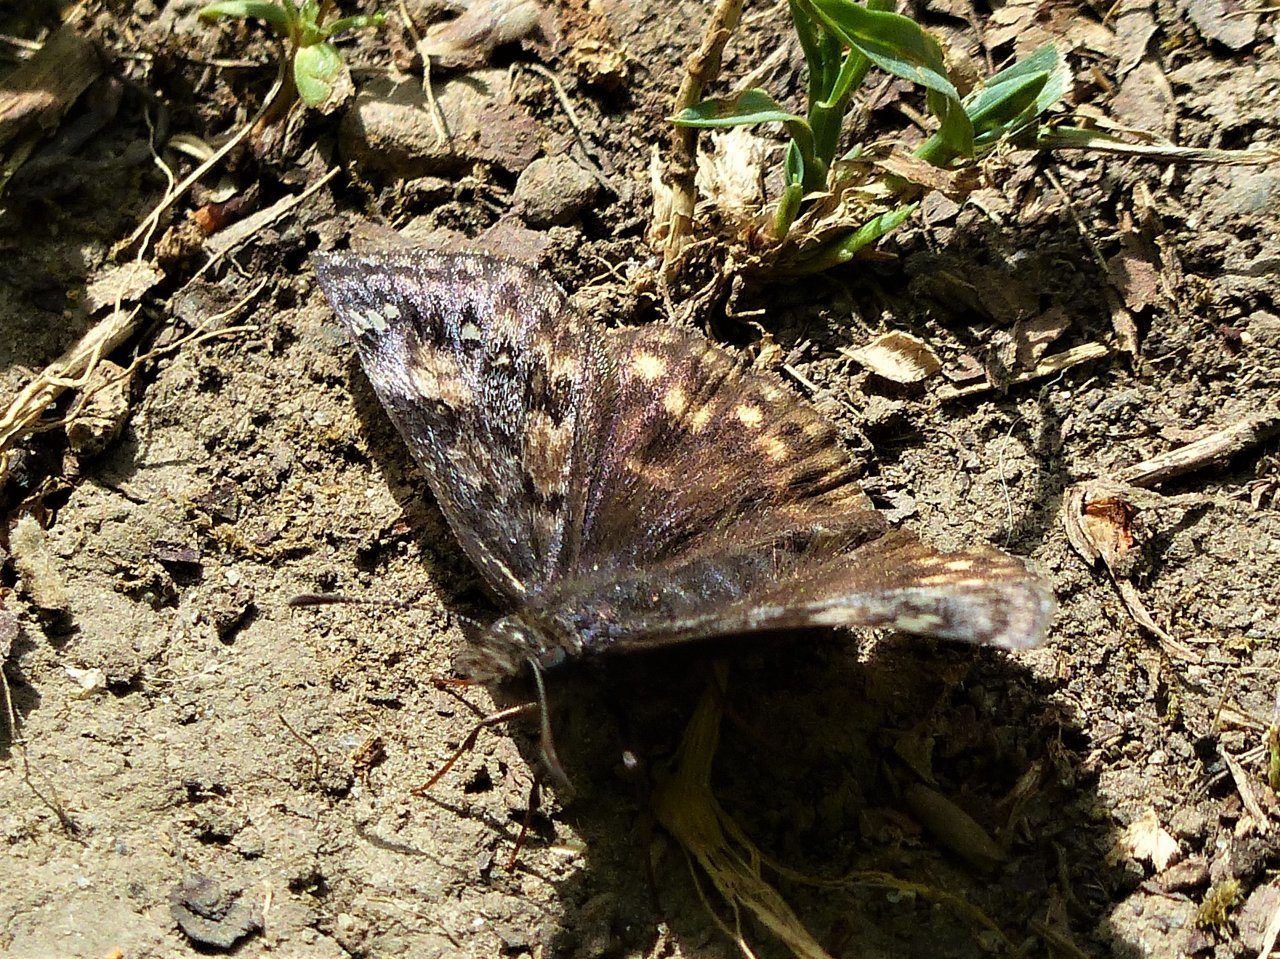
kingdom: Animalia
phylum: Arthropoda
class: Insecta
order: Lepidoptera
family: Hesperiidae
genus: Gesta
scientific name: Gesta
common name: Juvenal's Duskywing
